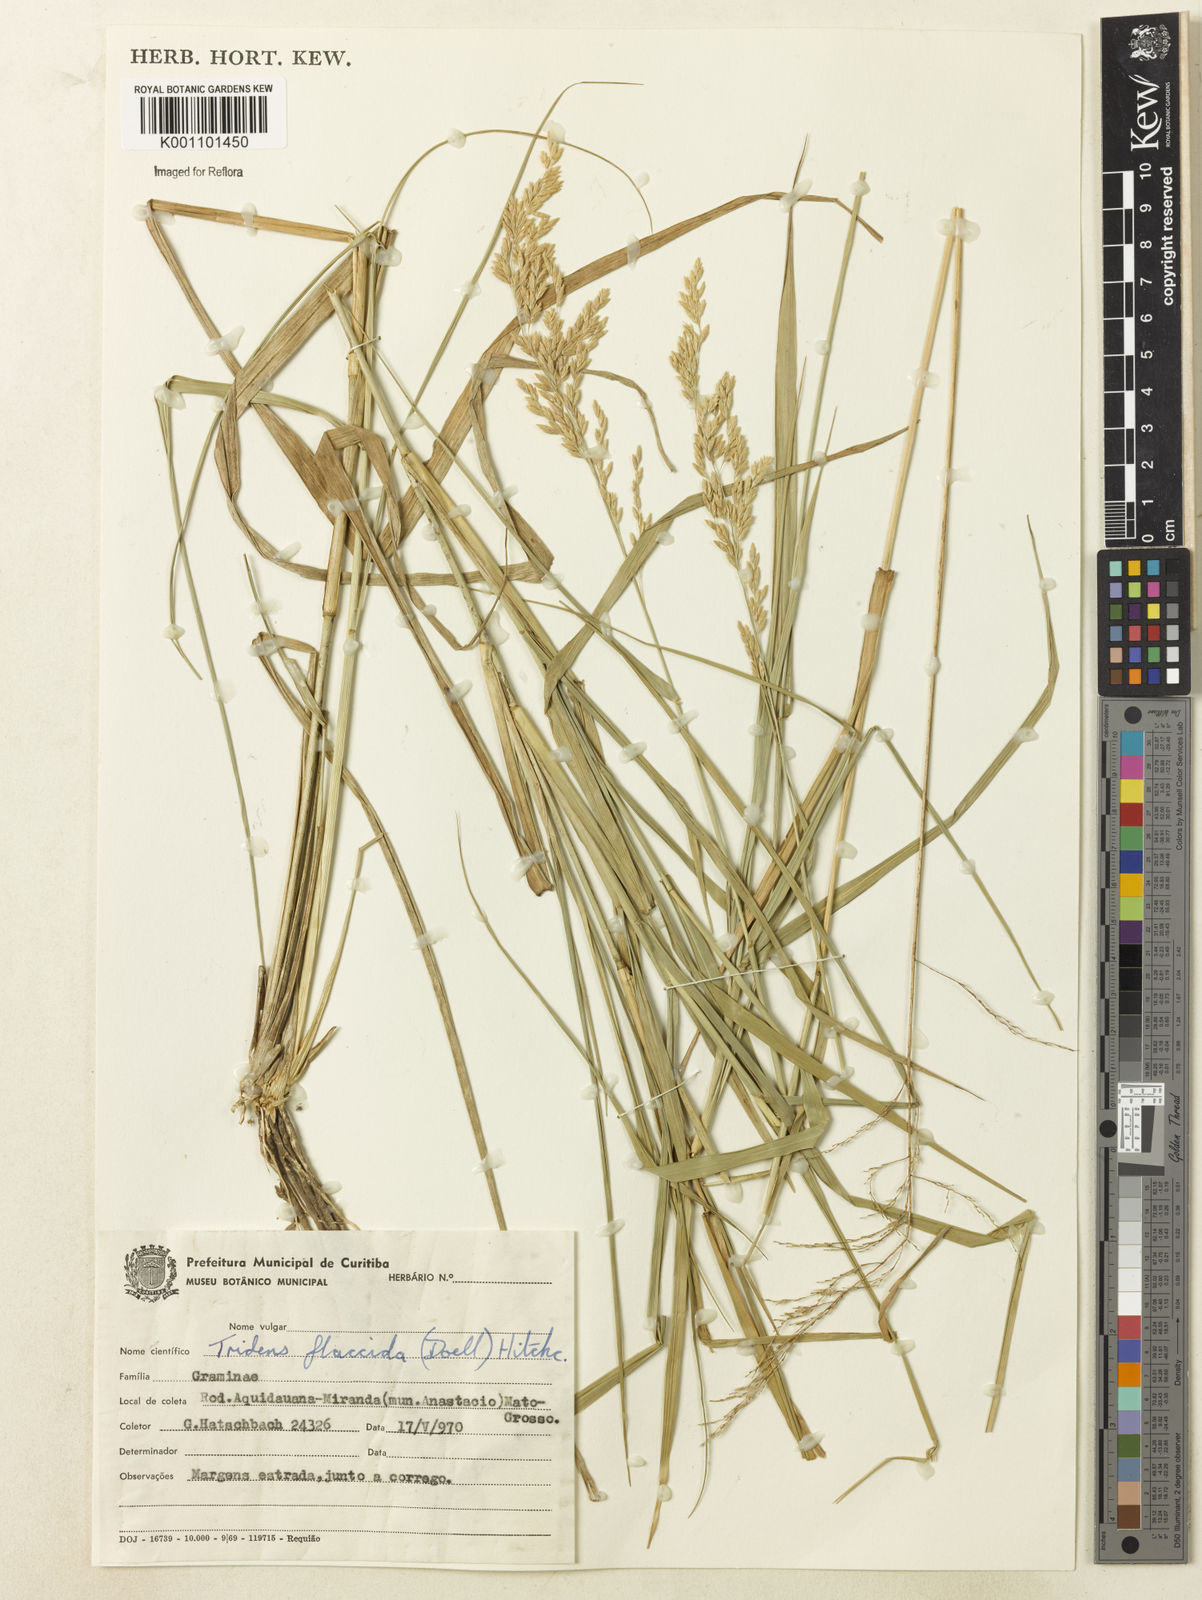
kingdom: Plantae
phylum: Tracheophyta
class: Liliopsida
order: Poales
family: Poaceae
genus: Tridens
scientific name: Tridens
